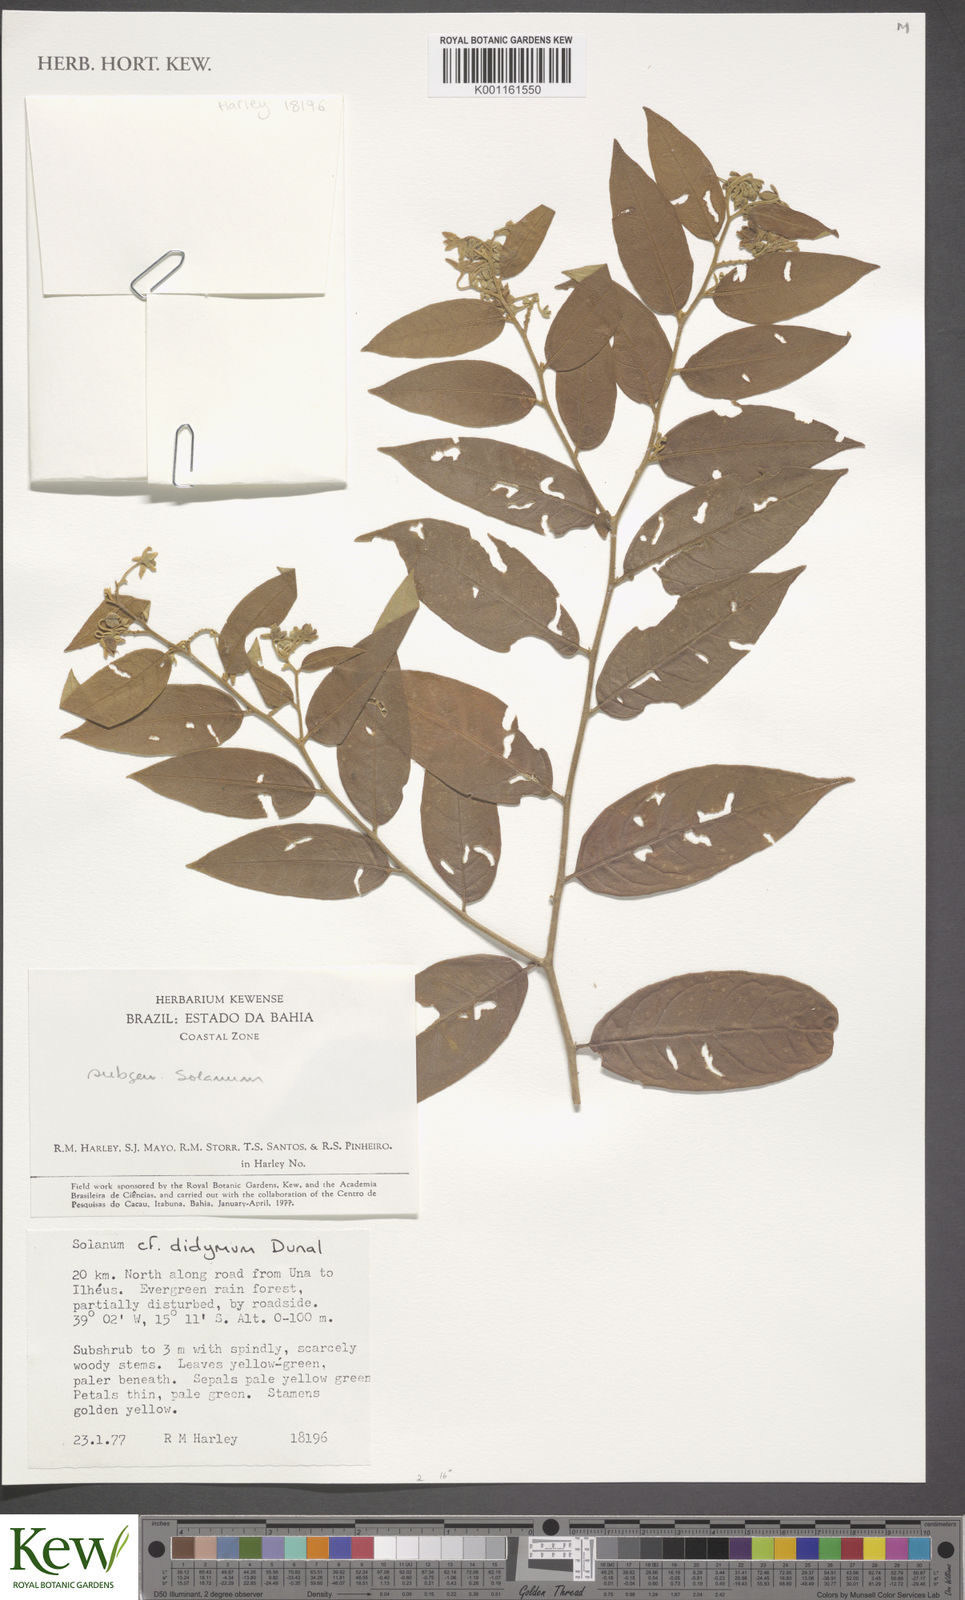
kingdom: Plantae
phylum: Tracheophyta
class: Magnoliopsida
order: Solanales
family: Solanaceae
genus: Solanum
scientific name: Solanum subsylvestre
